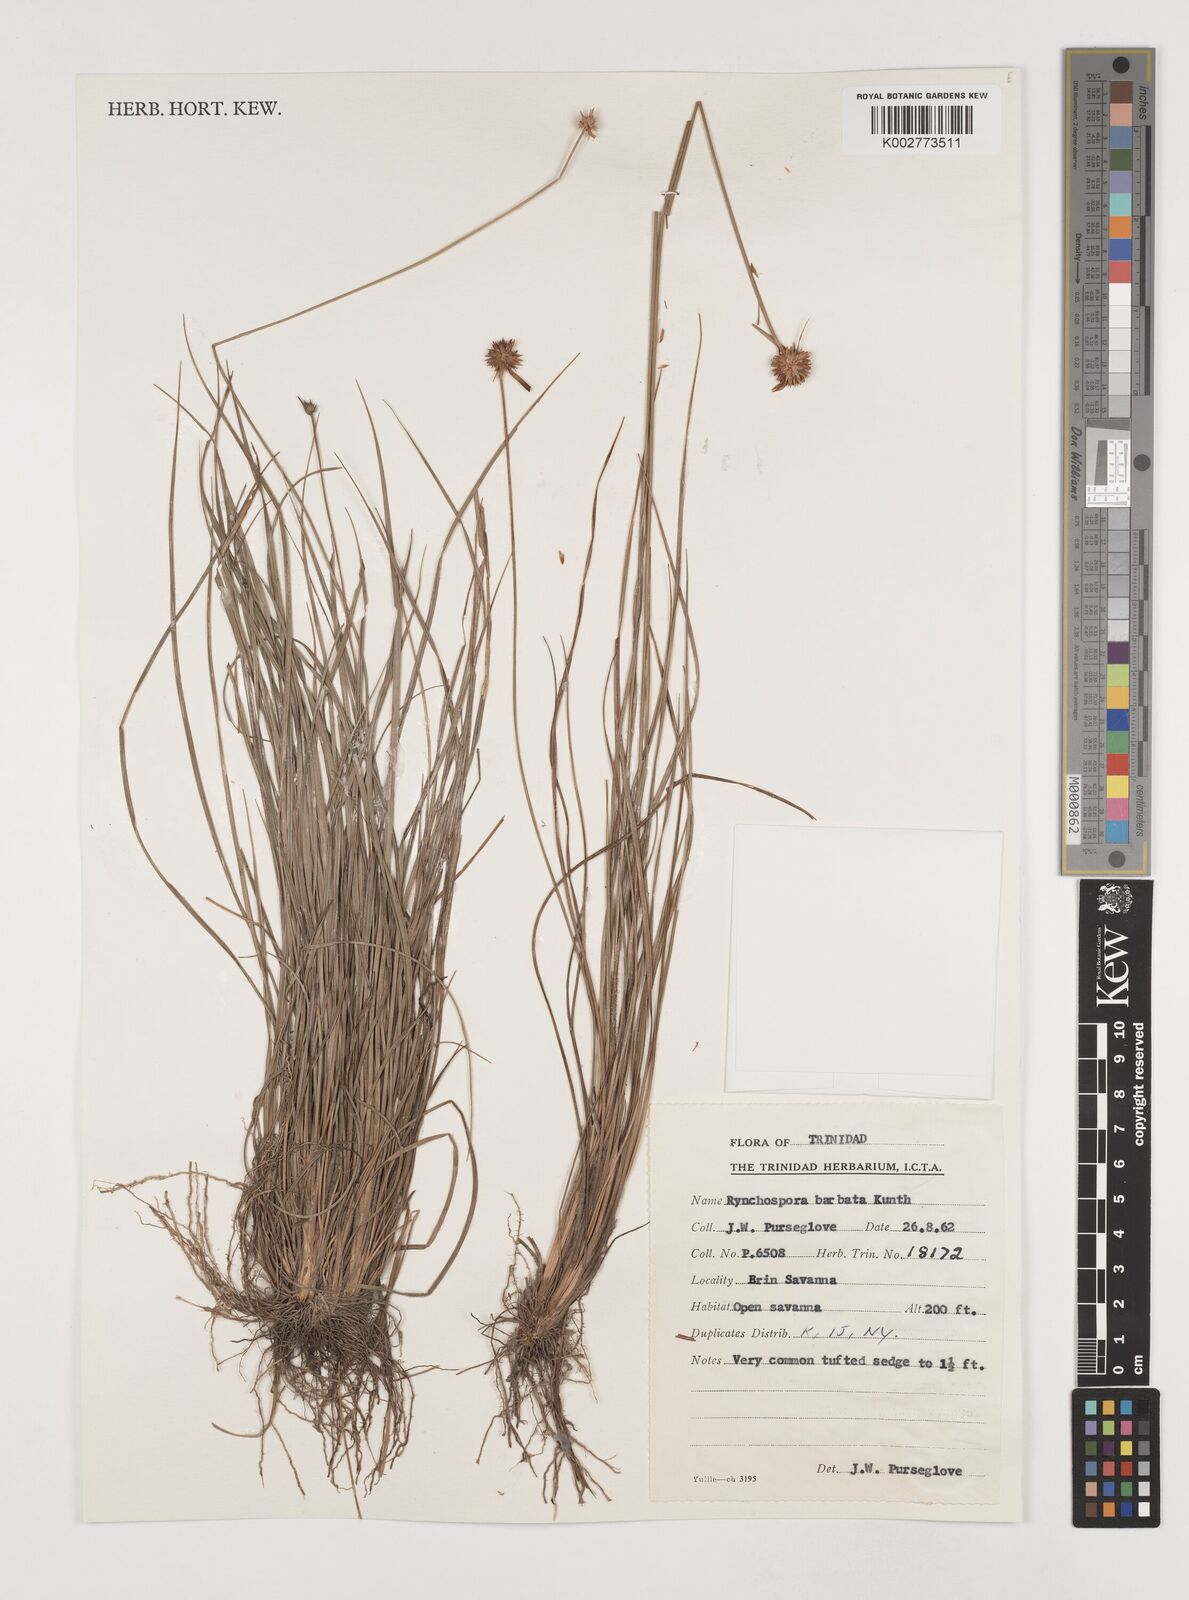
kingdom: Plantae
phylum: Tracheophyta
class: Liliopsida
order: Poales
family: Cyperaceae
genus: Rhynchospora
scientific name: Rhynchospora barbata
